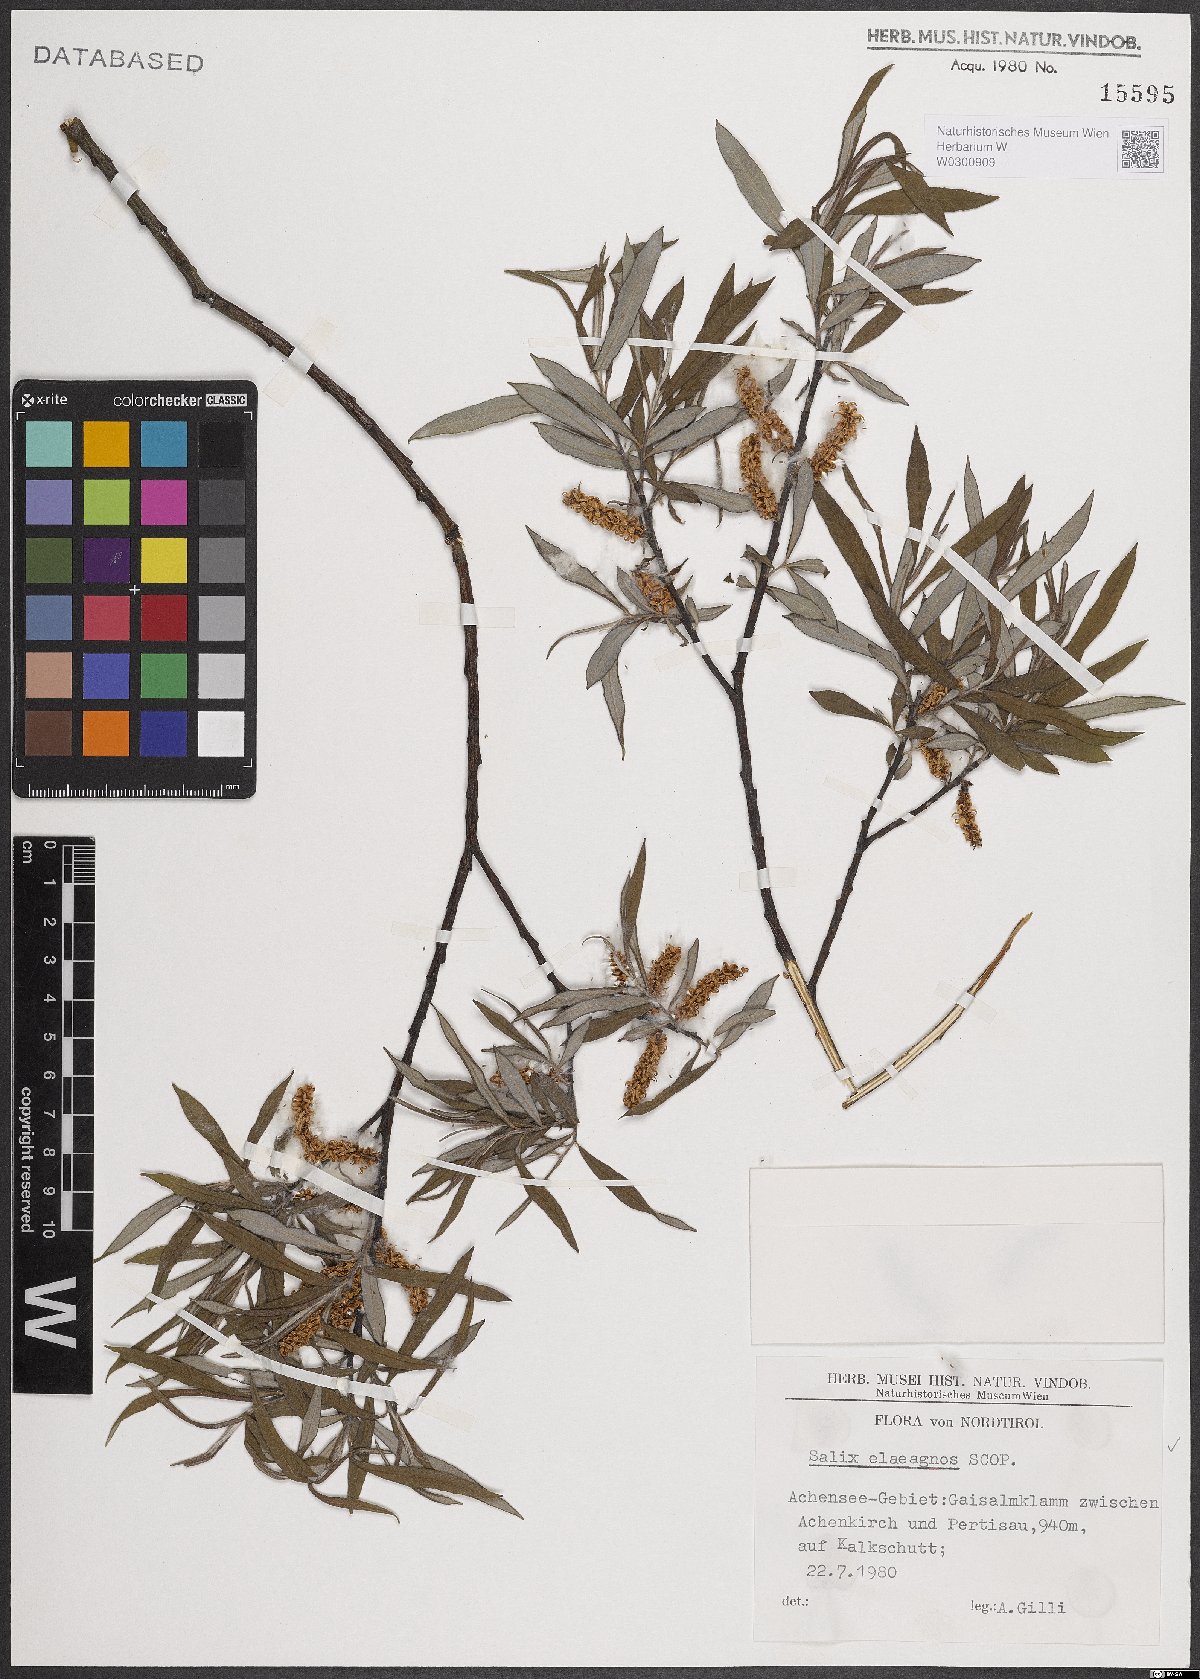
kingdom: Plantae
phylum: Tracheophyta
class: Magnoliopsida
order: Malpighiales
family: Salicaceae
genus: Salix
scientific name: Salix eleagnos
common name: Elaeagnus willow
